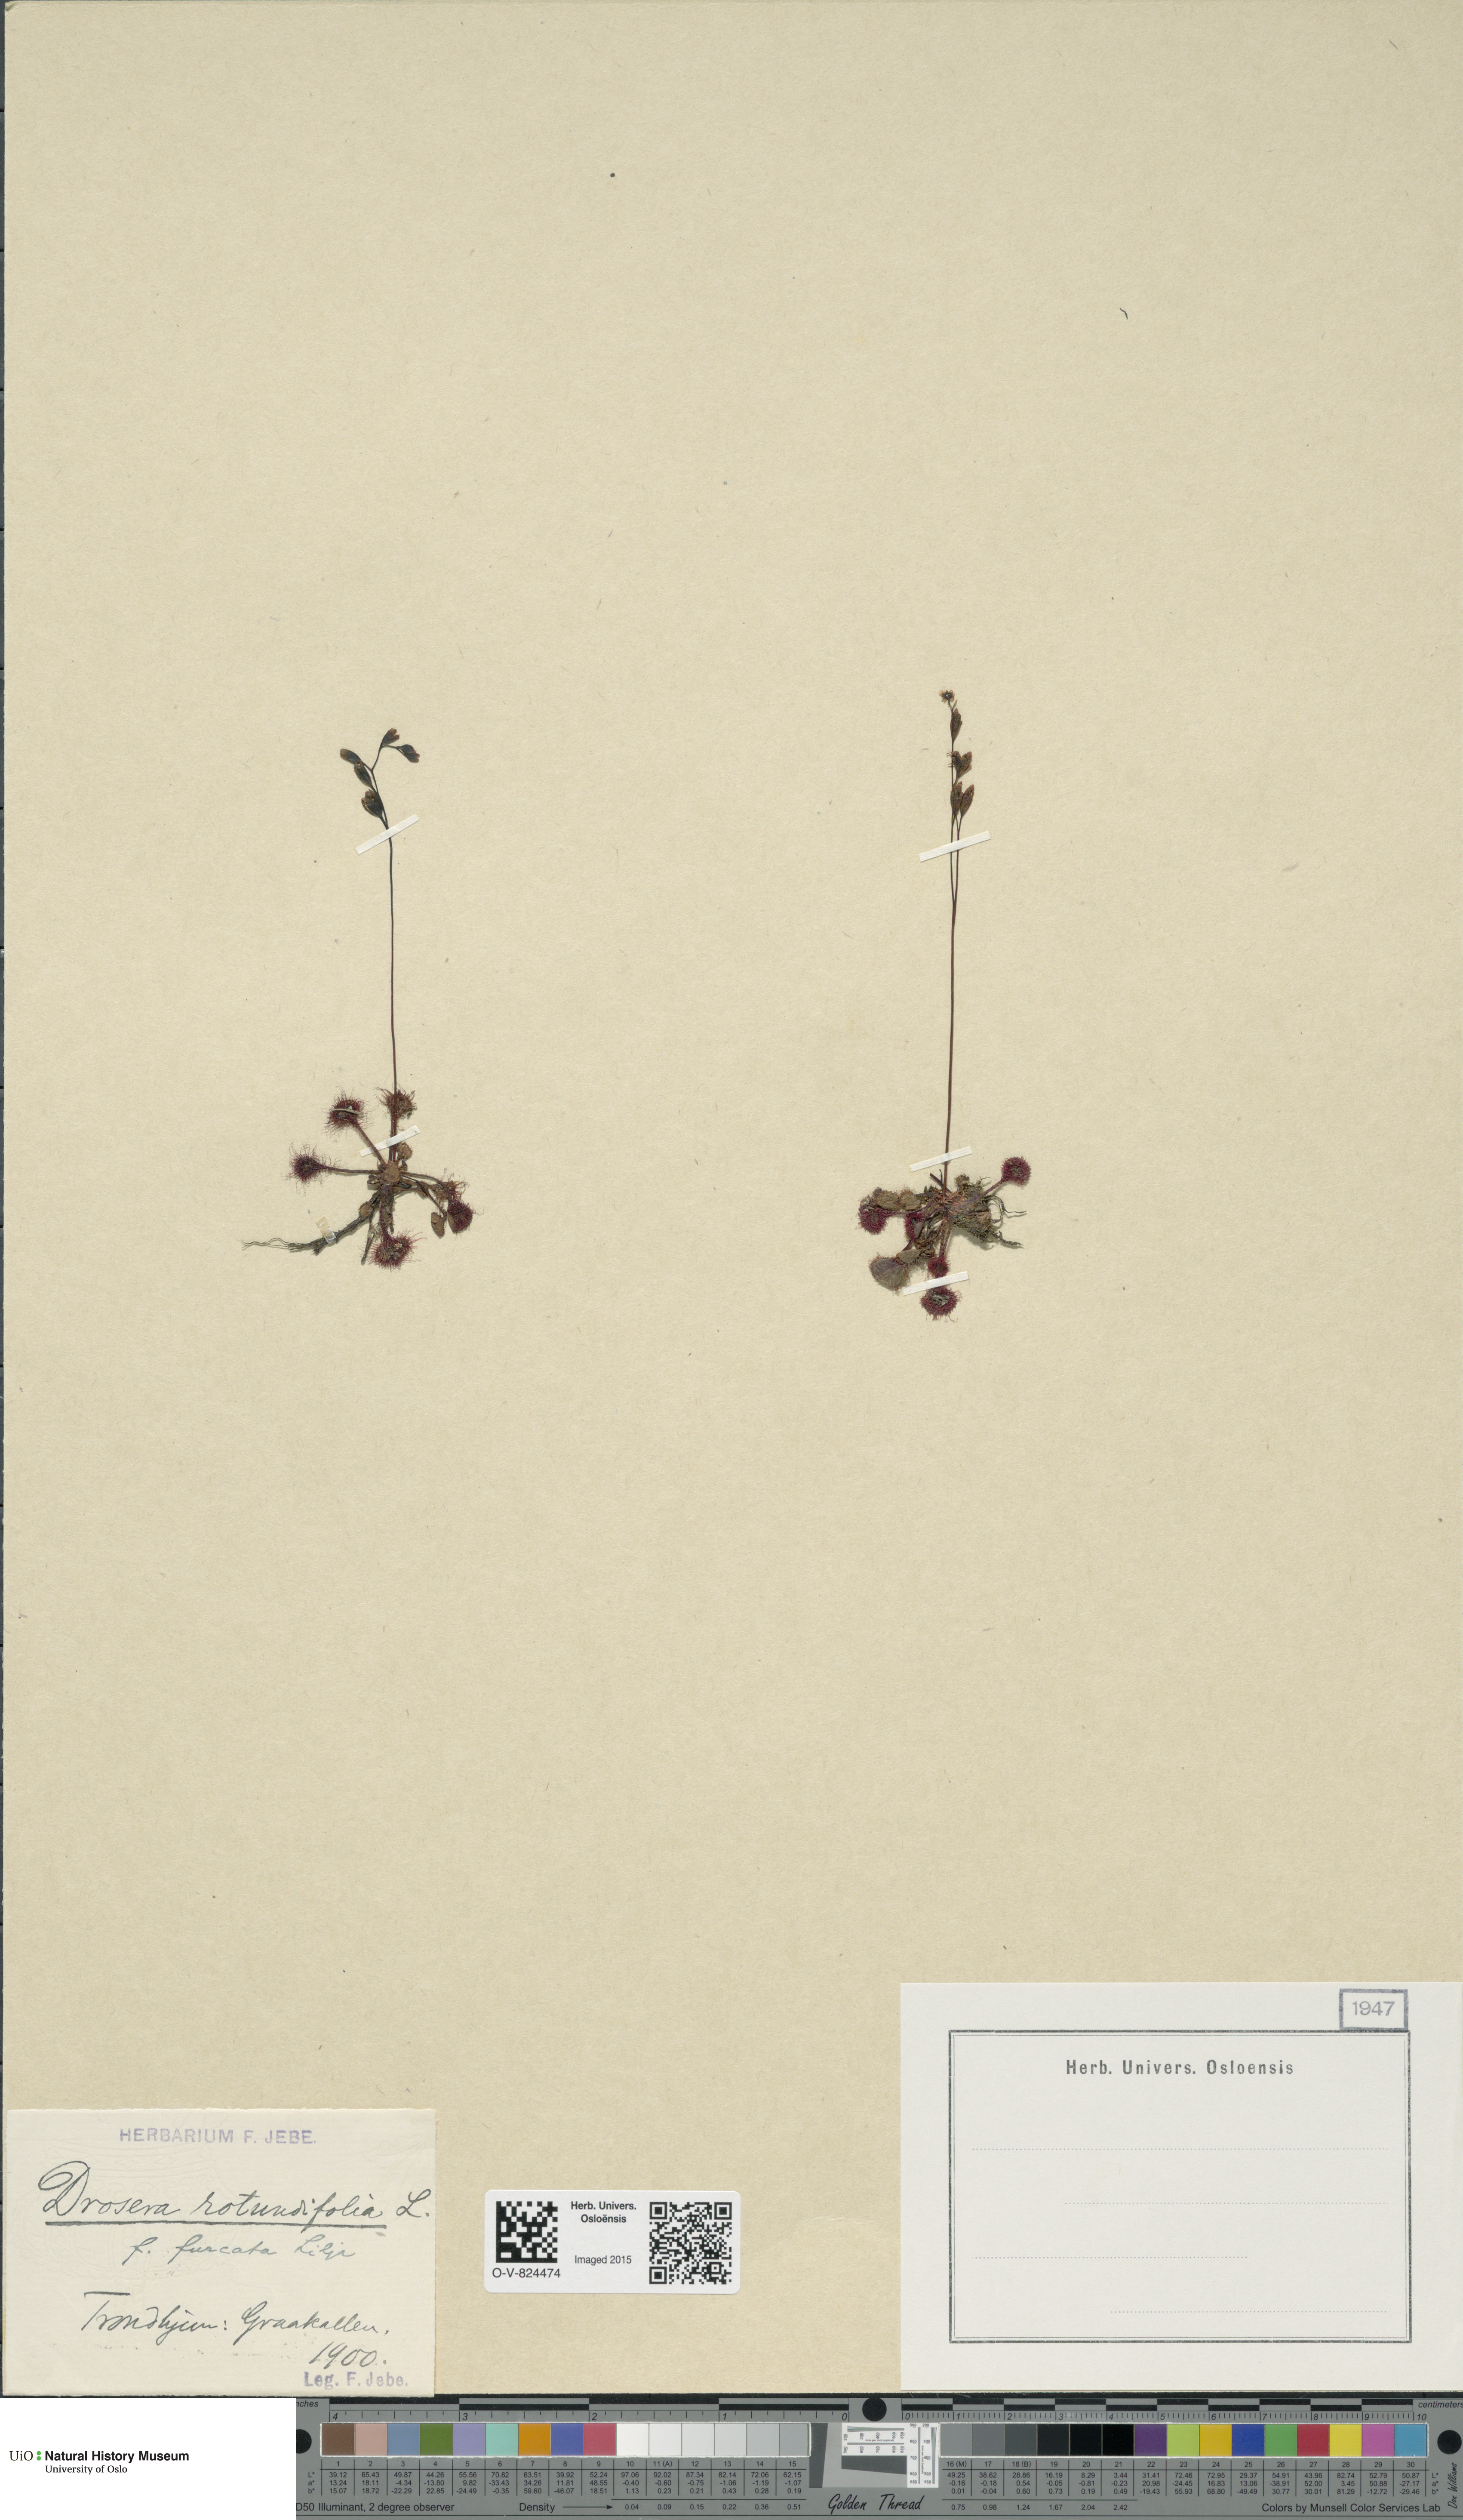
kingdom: Plantae
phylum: Tracheophyta
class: Magnoliopsida
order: Caryophyllales
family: Droseraceae
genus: Drosera
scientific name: Drosera rotundifolia
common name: Round-leaved sundew
